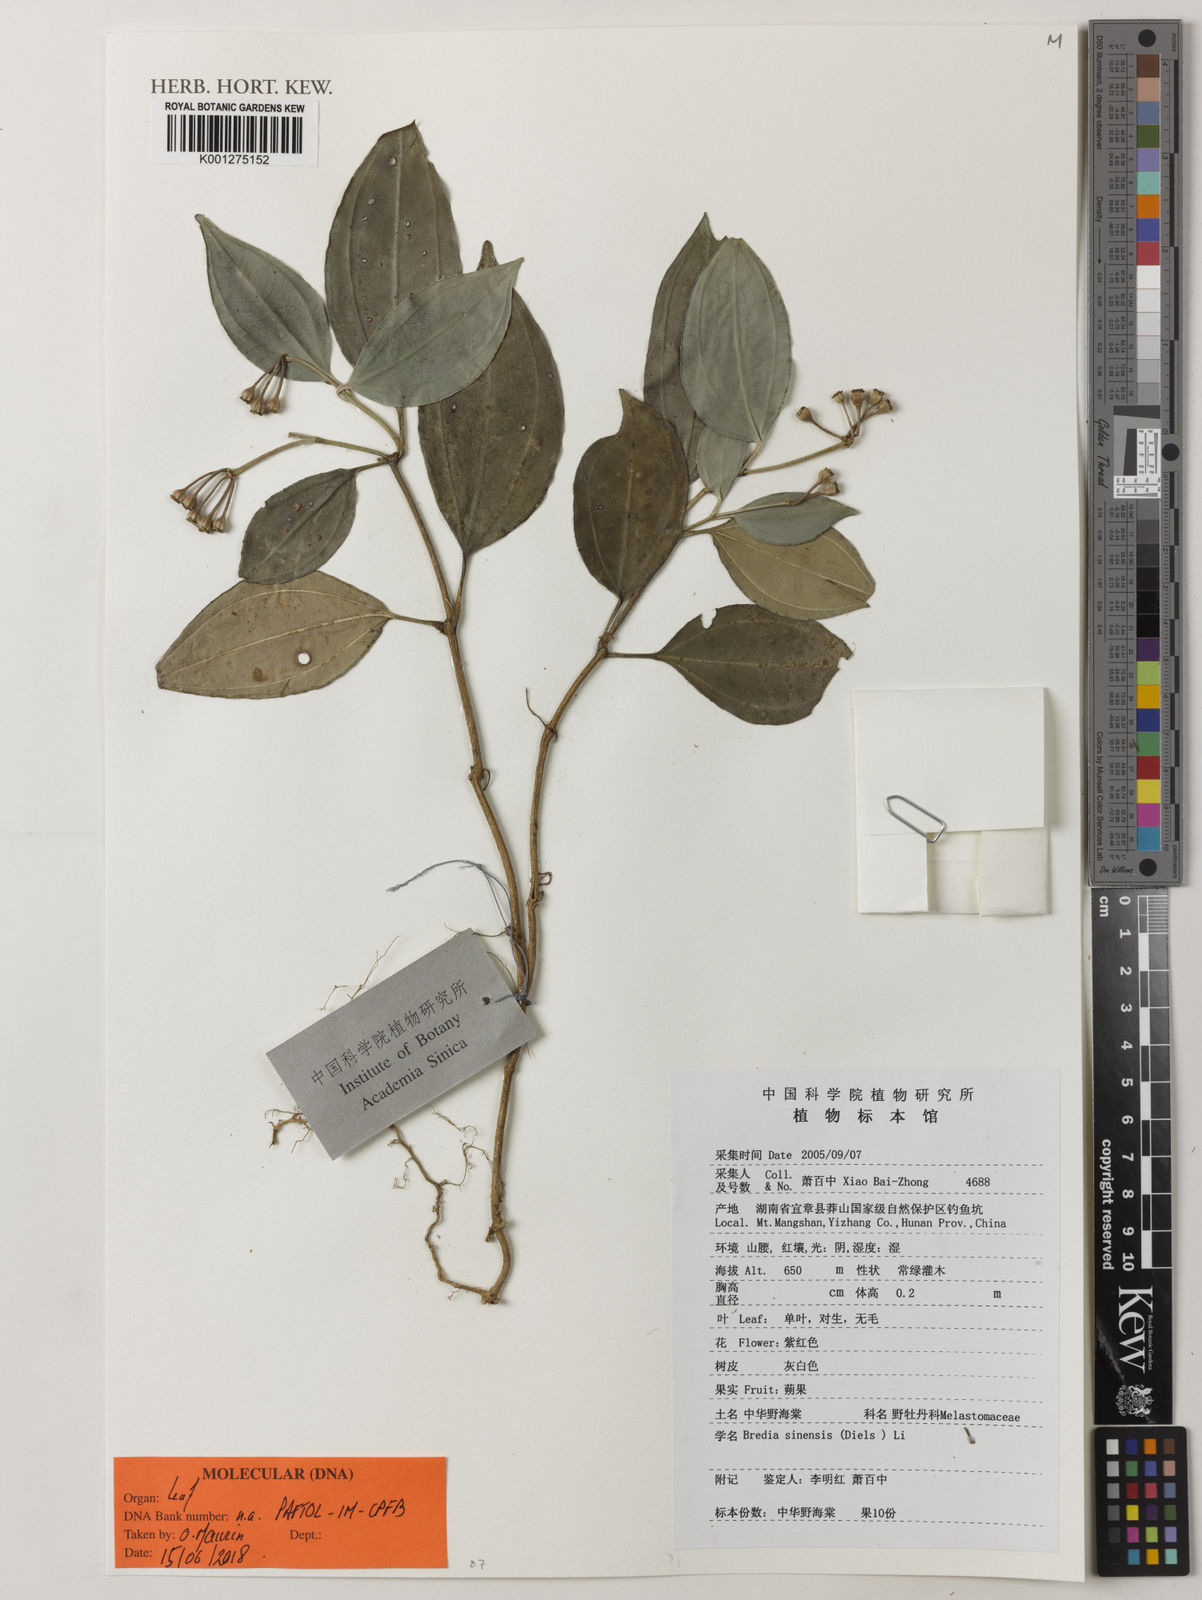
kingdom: Plantae
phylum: Tracheophyta
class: Magnoliopsida
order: Myrtales
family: Melastomataceae
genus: Tashiroea
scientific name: Tashiroea sinensis
